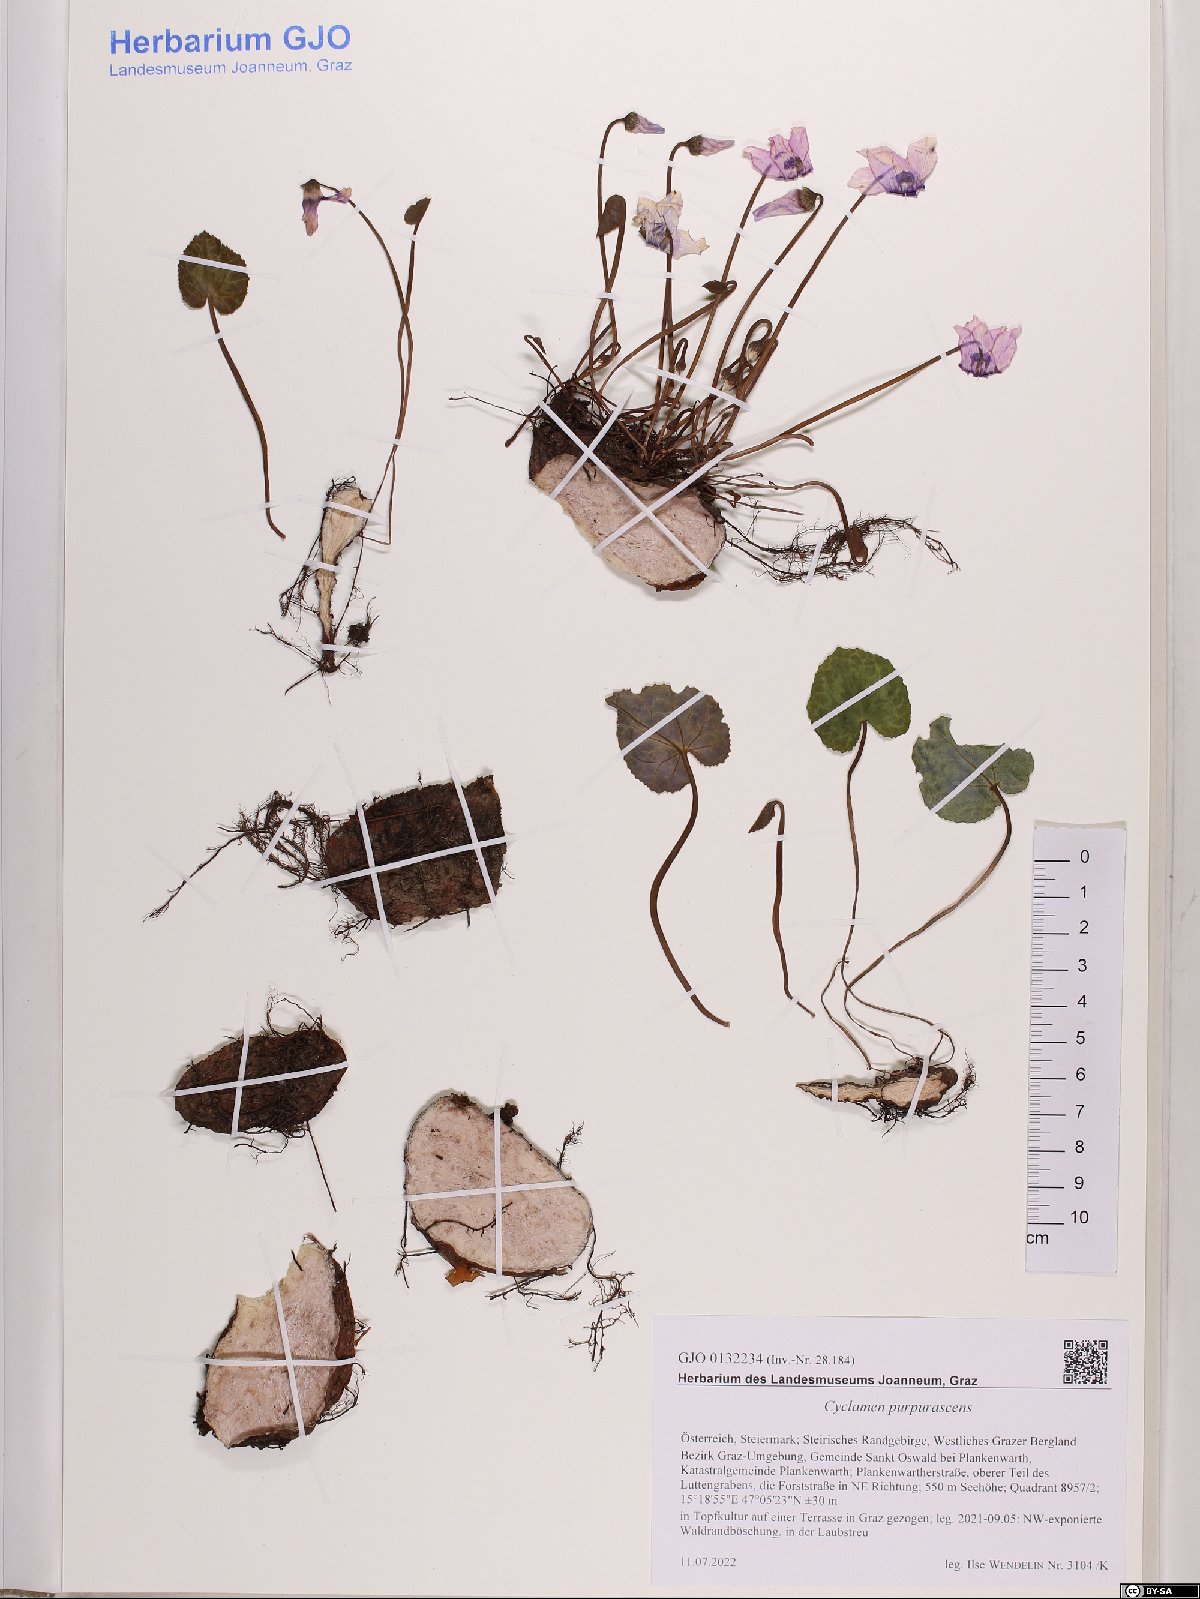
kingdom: Plantae
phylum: Tracheophyta
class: Magnoliopsida
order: Ericales
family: Primulaceae
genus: Cyclamen
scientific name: Cyclamen purpurascens
